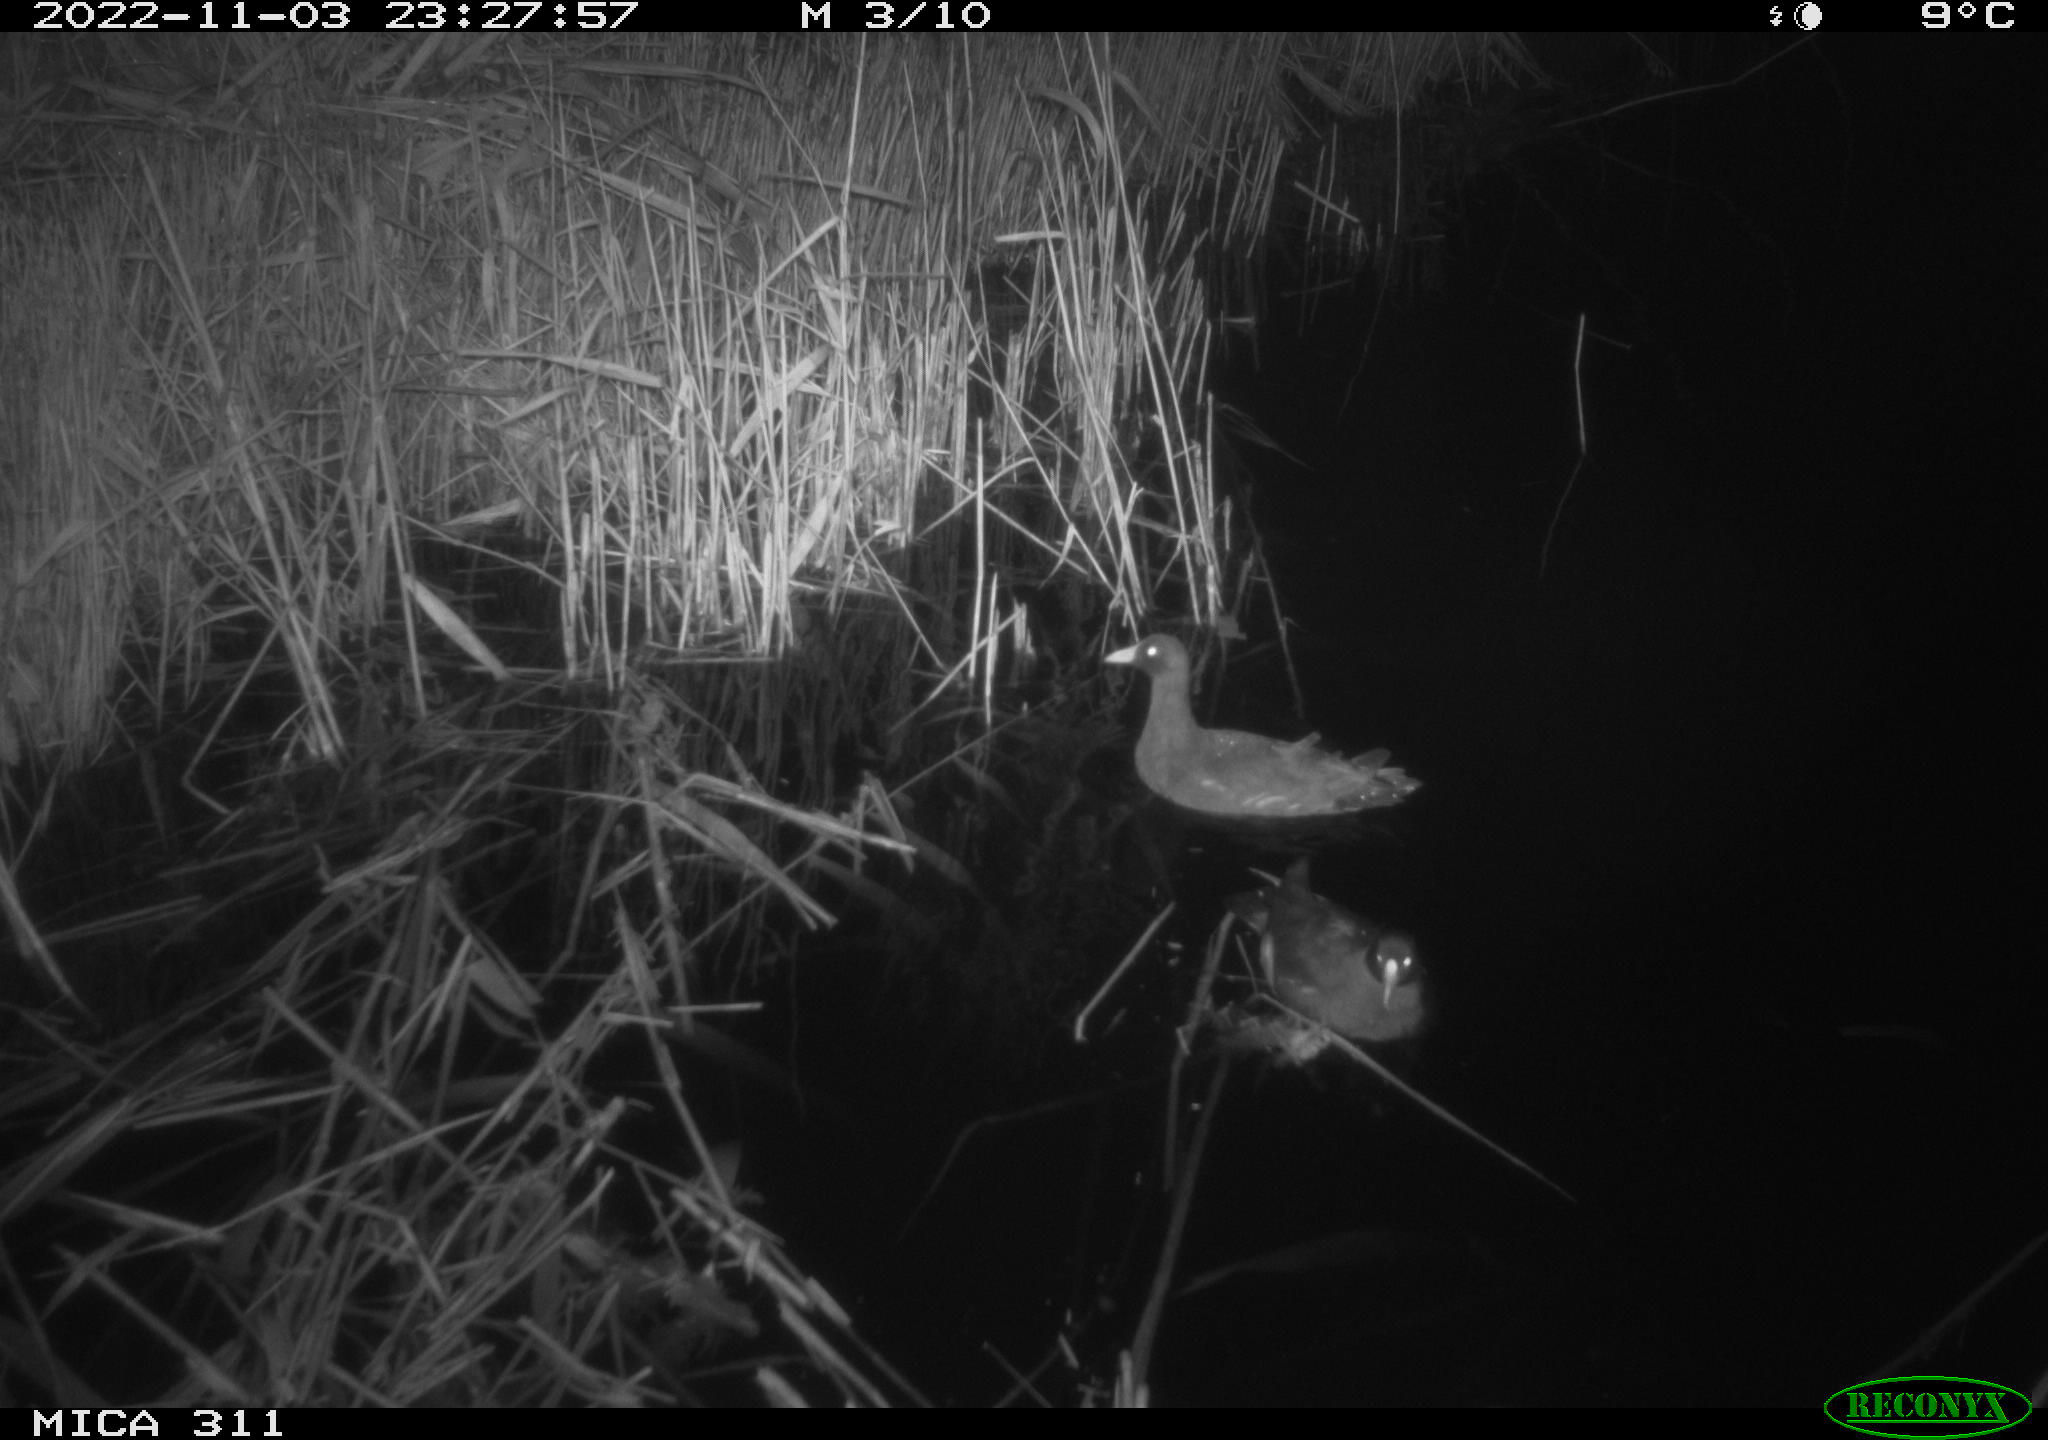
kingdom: Animalia
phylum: Chordata
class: Aves
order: Gruiformes
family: Rallidae
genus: Gallinula
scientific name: Gallinula chloropus
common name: Common moorhen
